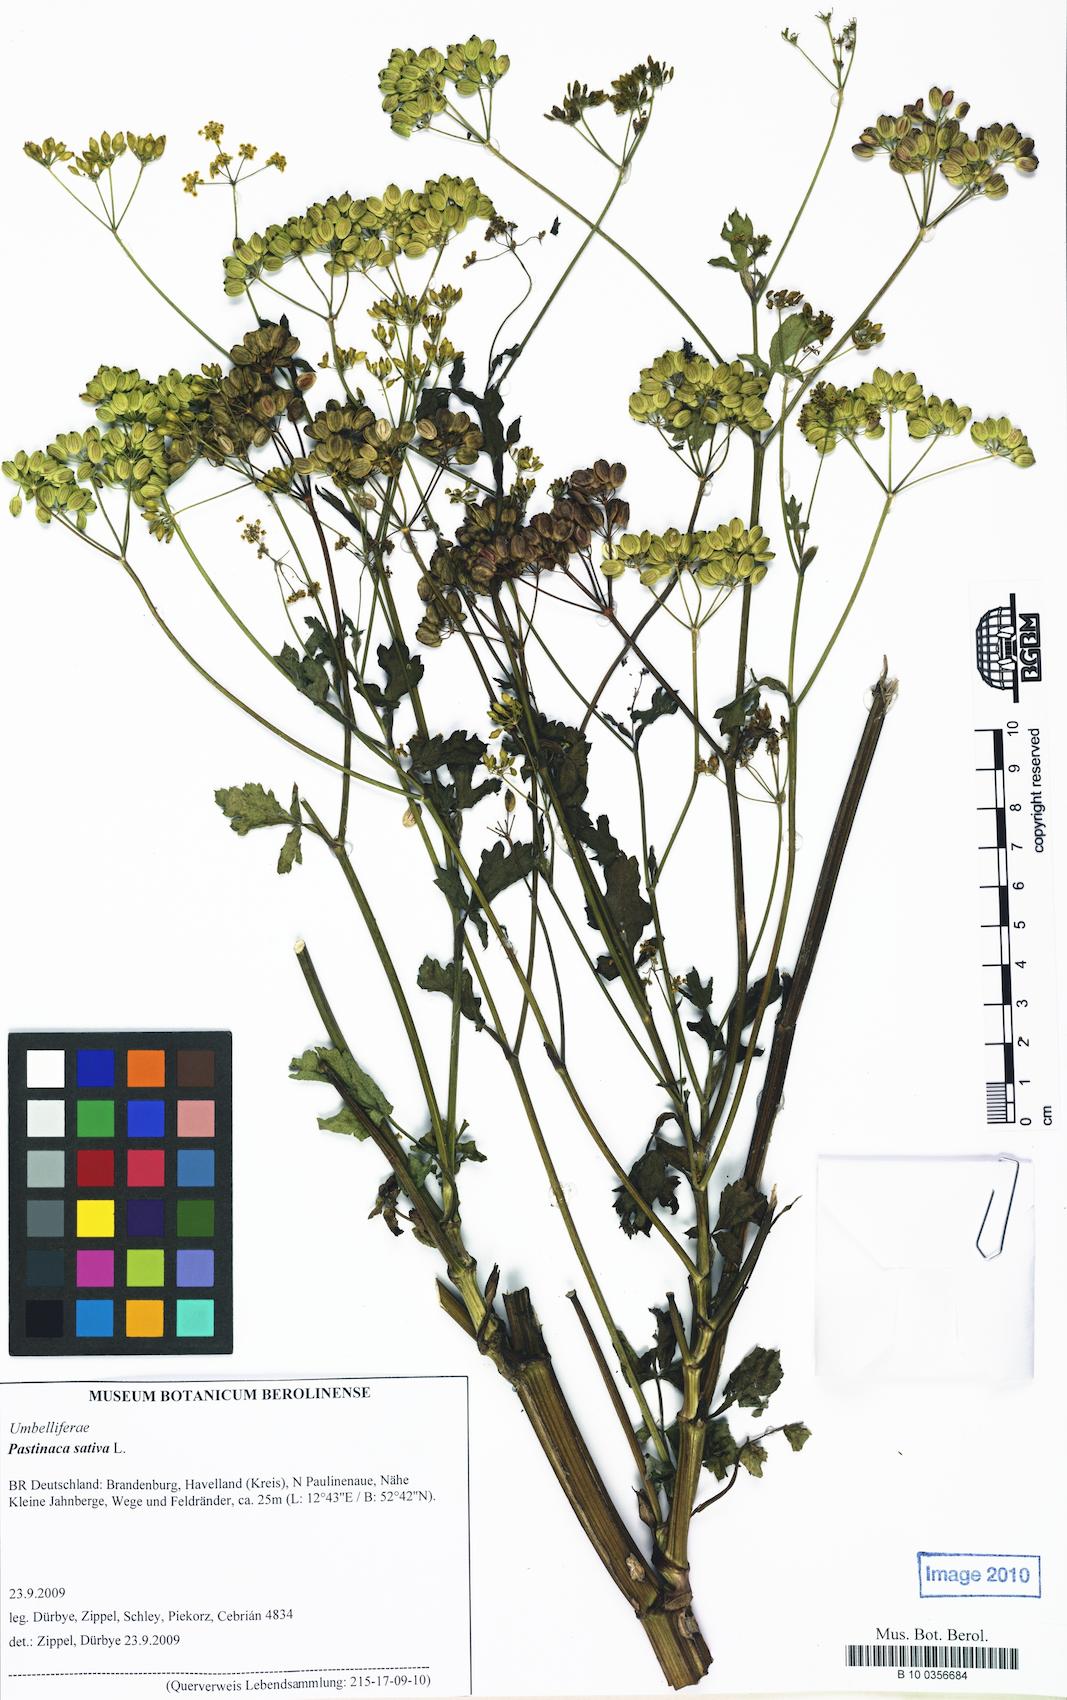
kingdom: Plantae
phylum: Tracheophyta
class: Magnoliopsida
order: Apiales
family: Apiaceae
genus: Pastinaca
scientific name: Pastinaca sativa
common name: Wild parsnip
